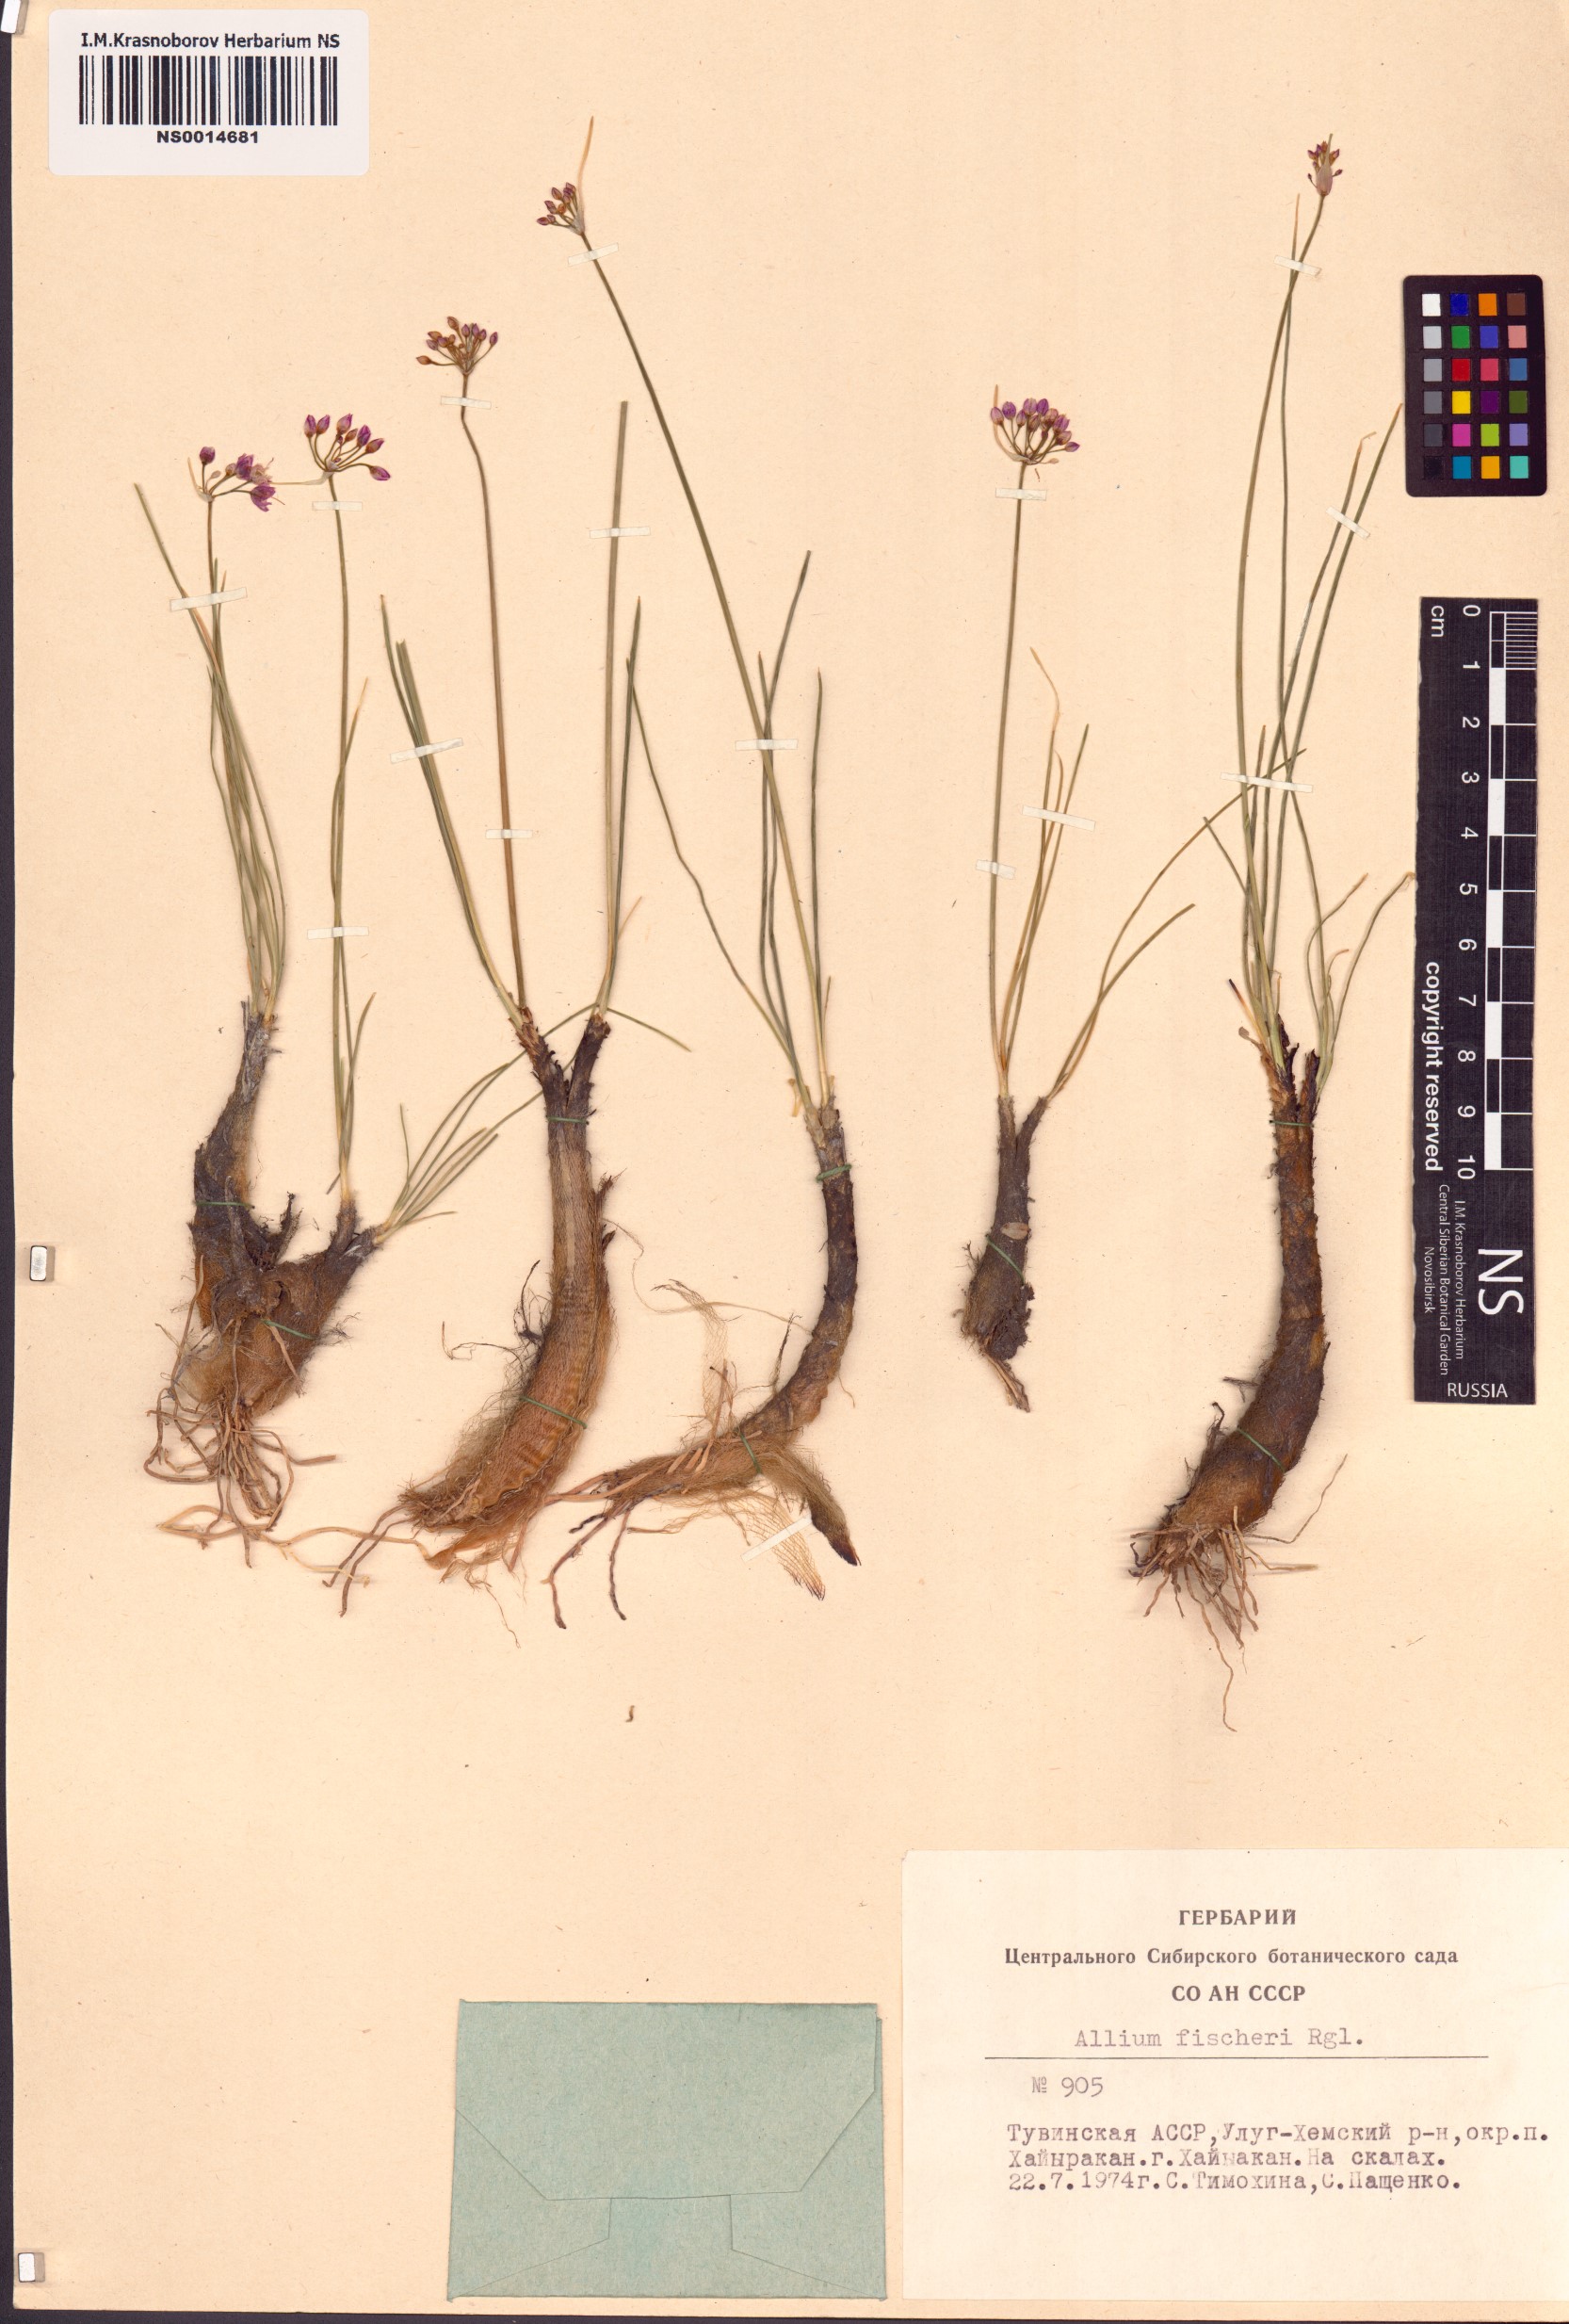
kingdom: Plantae
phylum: Tracheophyta
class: Liliopsida
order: Asparagales
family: Amaryllidaceae
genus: Allium
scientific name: Allium eduardi
